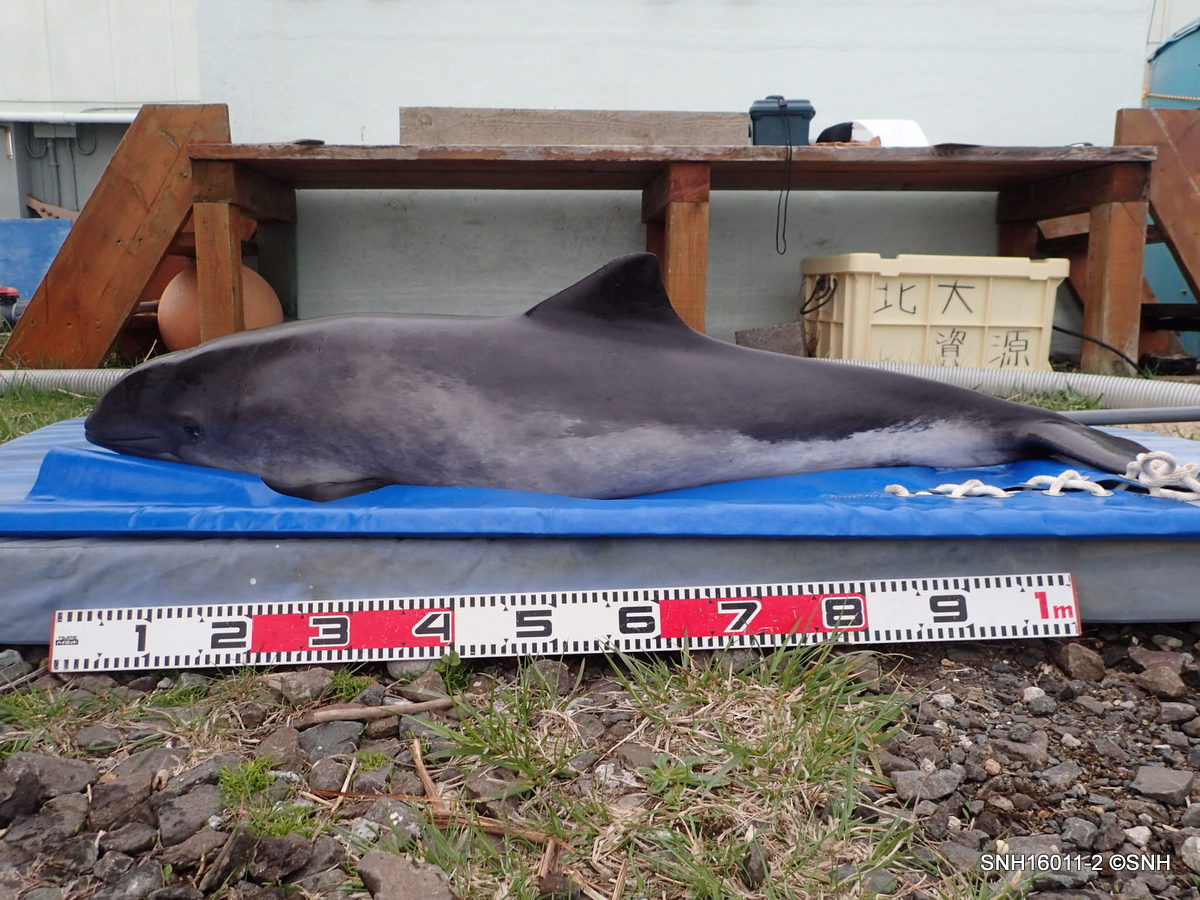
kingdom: Animalia
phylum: Chordata
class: Mammalia
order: Cetacea
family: Phocoenidae
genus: Phocoena
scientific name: Phocoena phocoena
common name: Harbour porpoise
